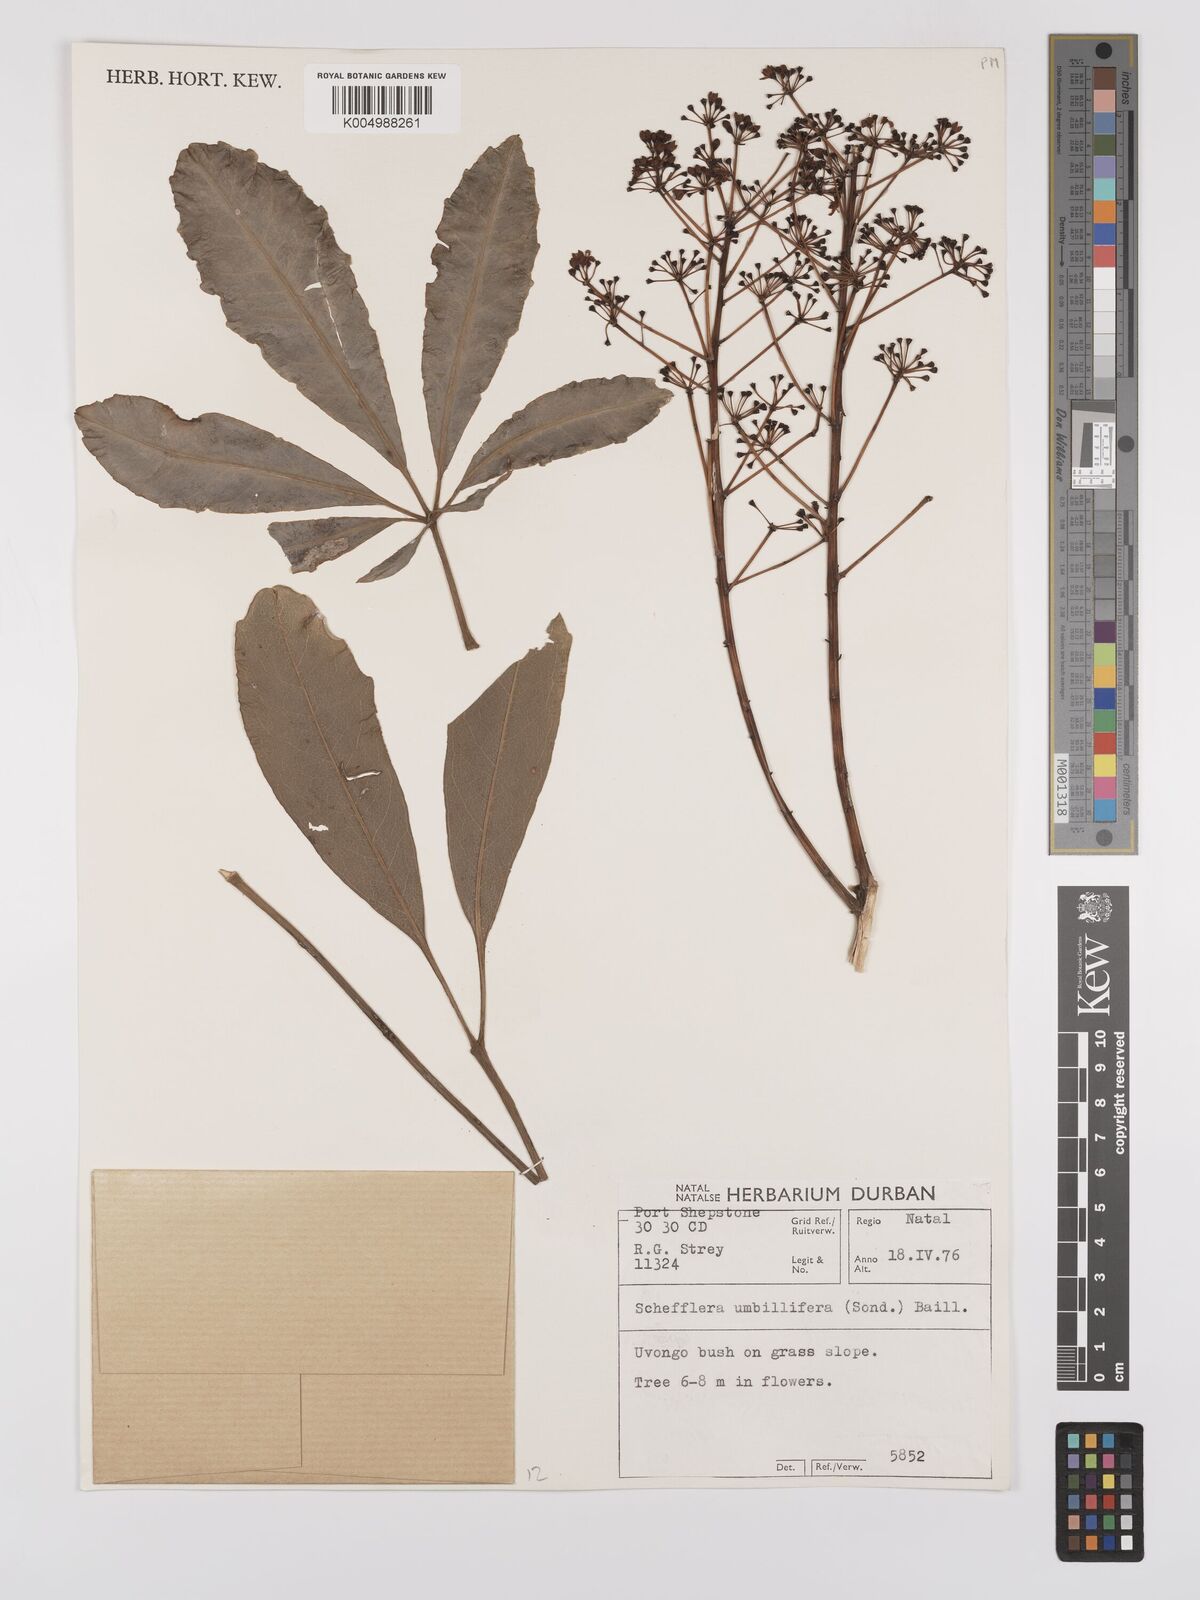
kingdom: Plantae
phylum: Tracheophyta
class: Magnoliopsida
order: Apiales
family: Araliaceae
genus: Neocussonia
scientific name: Neocussonia umbellifera
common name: False cabbage tree
